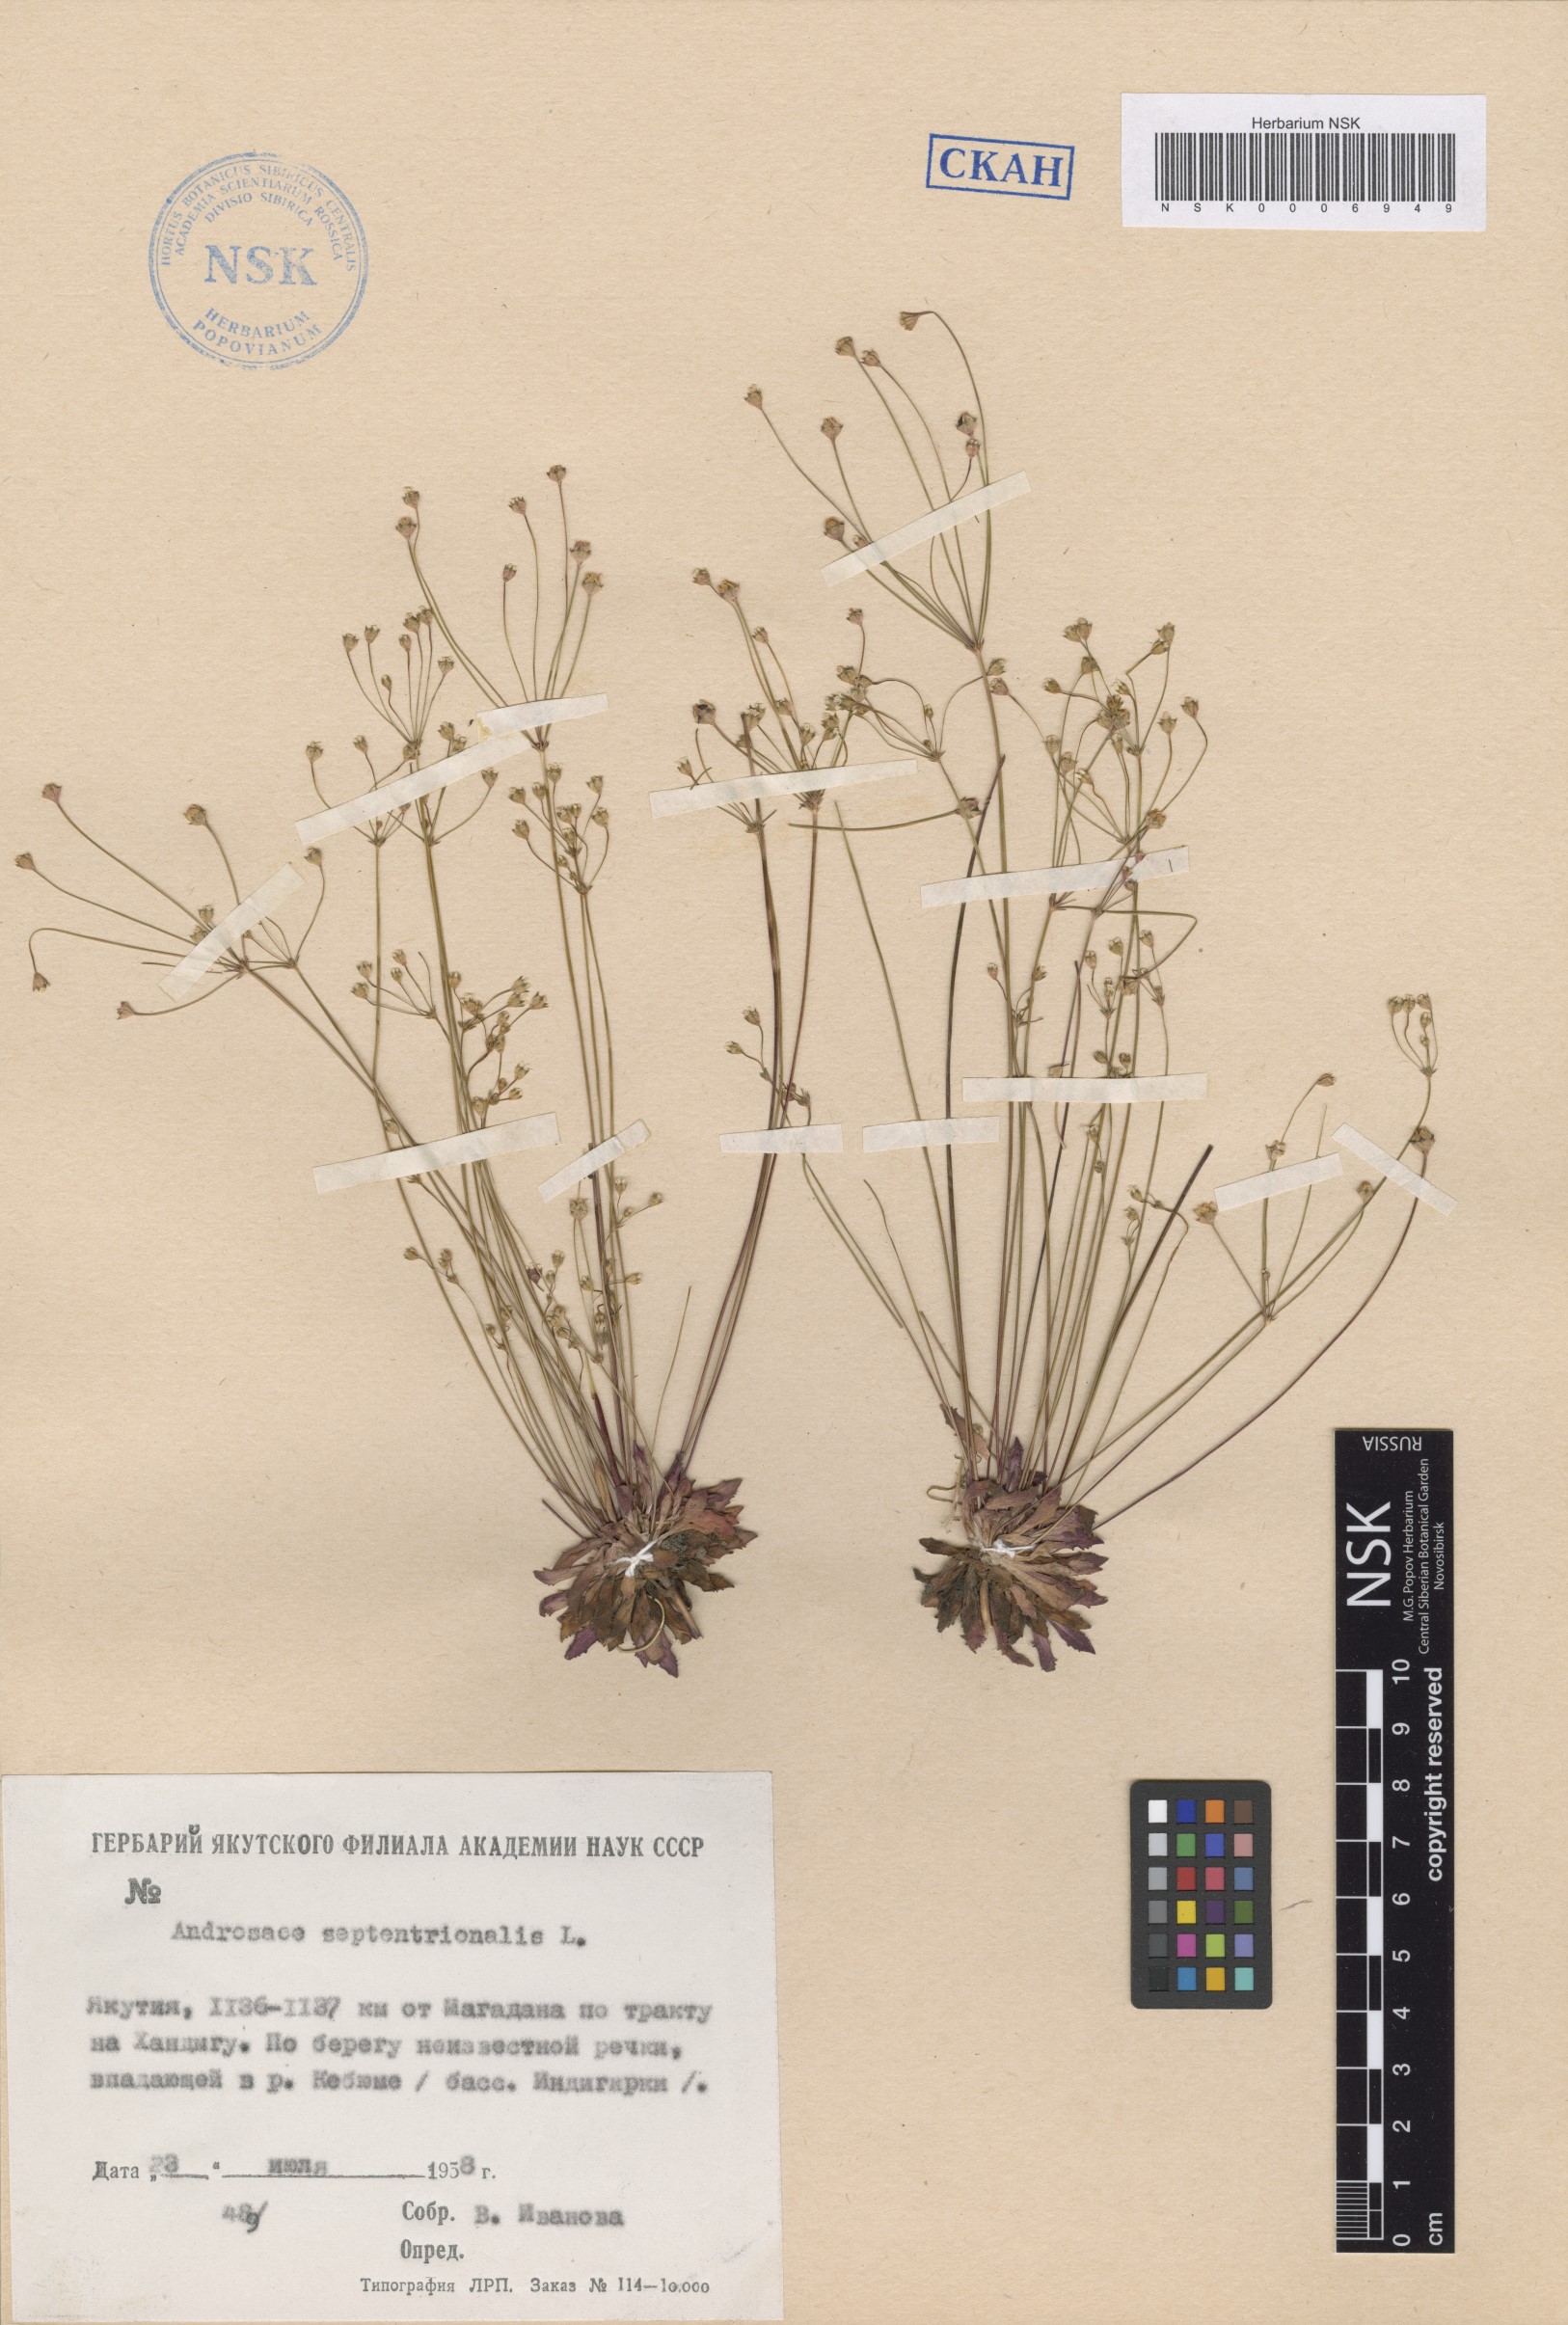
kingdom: Plantae
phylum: Tracheophyta
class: Magnoliopsida
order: Ericales
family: Primulaceae
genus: Androsace
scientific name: Androsace septentrionalis
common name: Hairy northern fairy-candelabra
